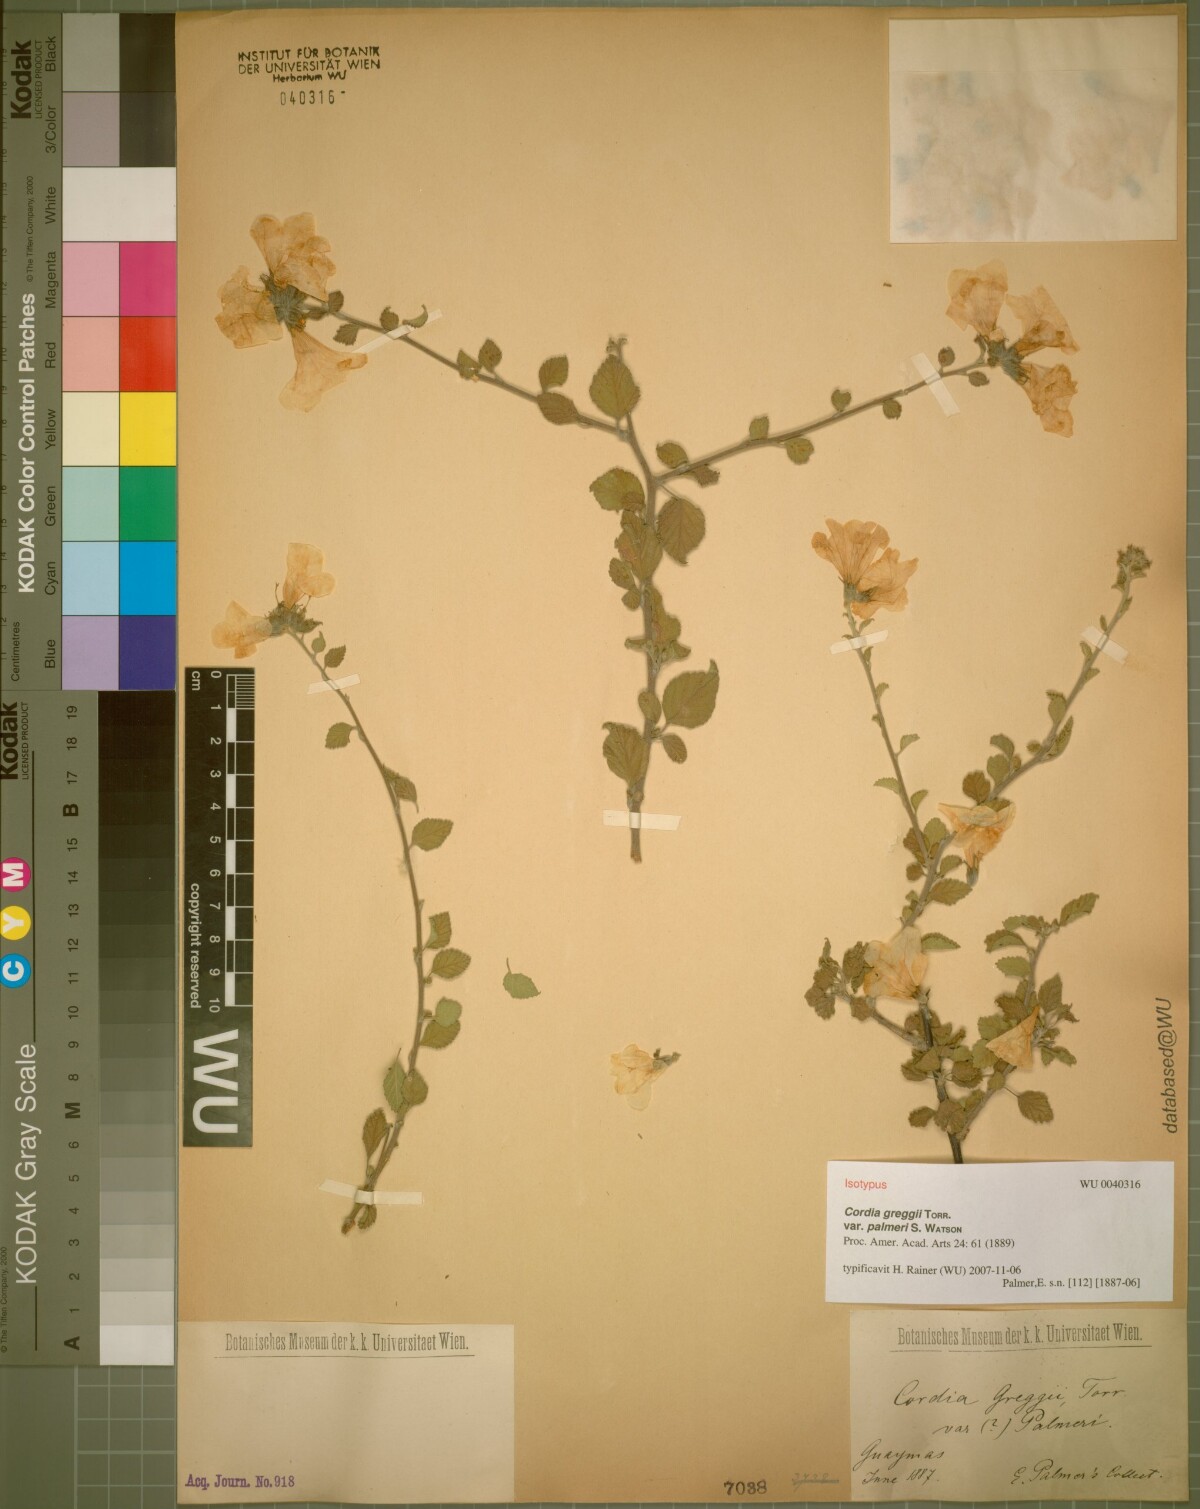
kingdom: Plantae
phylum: Tracheophyta
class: Magnoliopsida
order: Boraginales
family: Cordiaceae
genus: Cordia
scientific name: Cordia parvifolia
